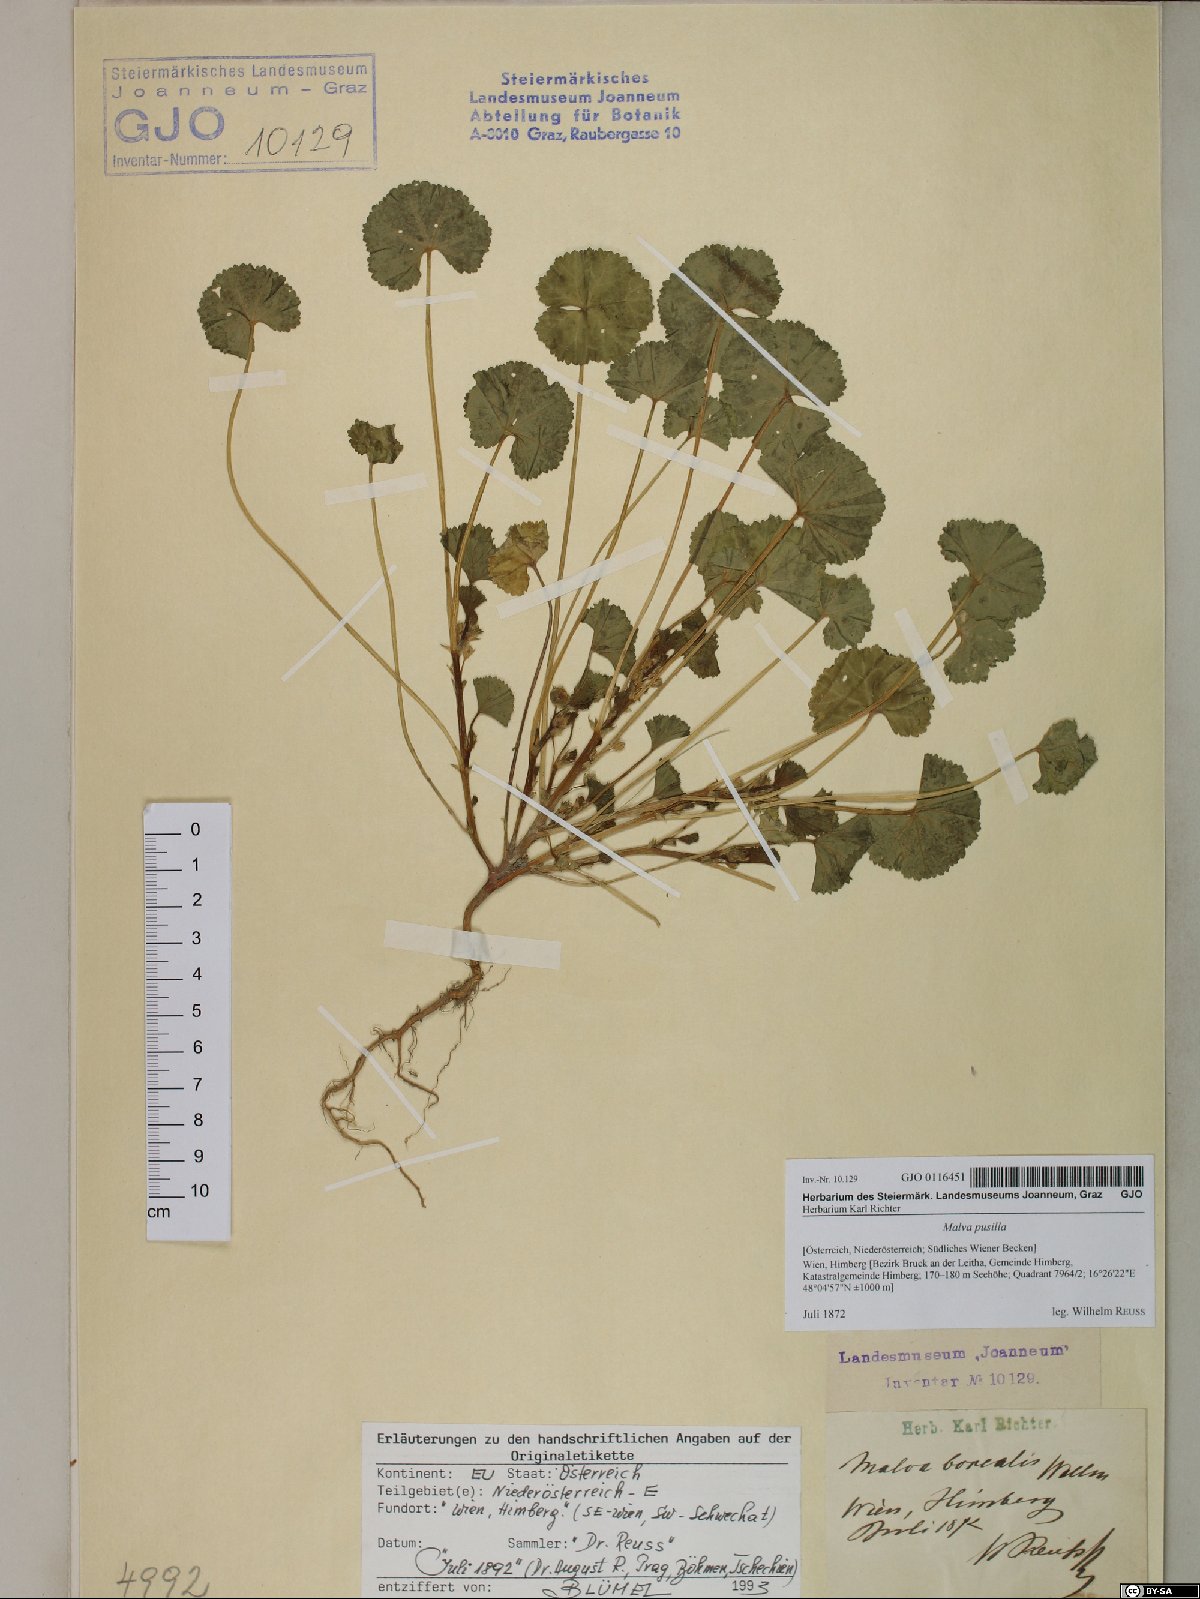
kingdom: Plantae
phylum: Tracheophyta
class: Magnoliopsida
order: Malvales
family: Malvaceae
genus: Malva
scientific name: Malva pusilla
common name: Small mallow
